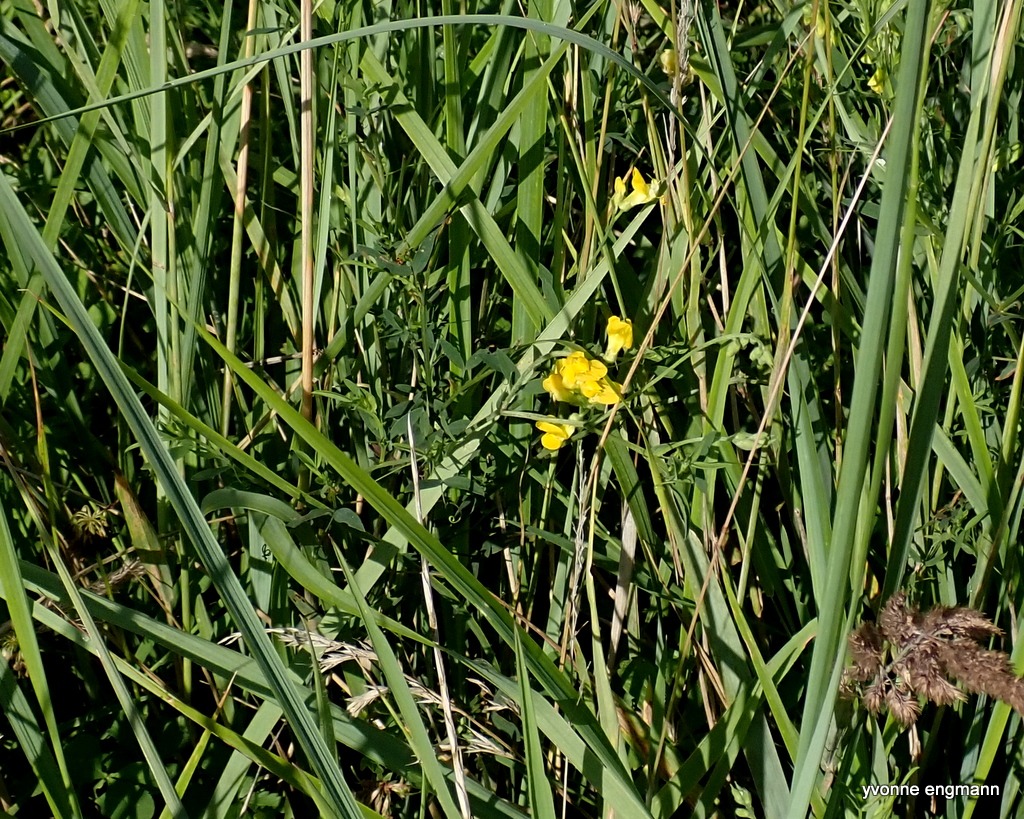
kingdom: Plantae
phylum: Tracheophyta
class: Magnoliopsida
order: Fabales
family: Fabaceae
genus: Lathyrus
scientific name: Lathyrus pratensis
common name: Gul fladbælg
